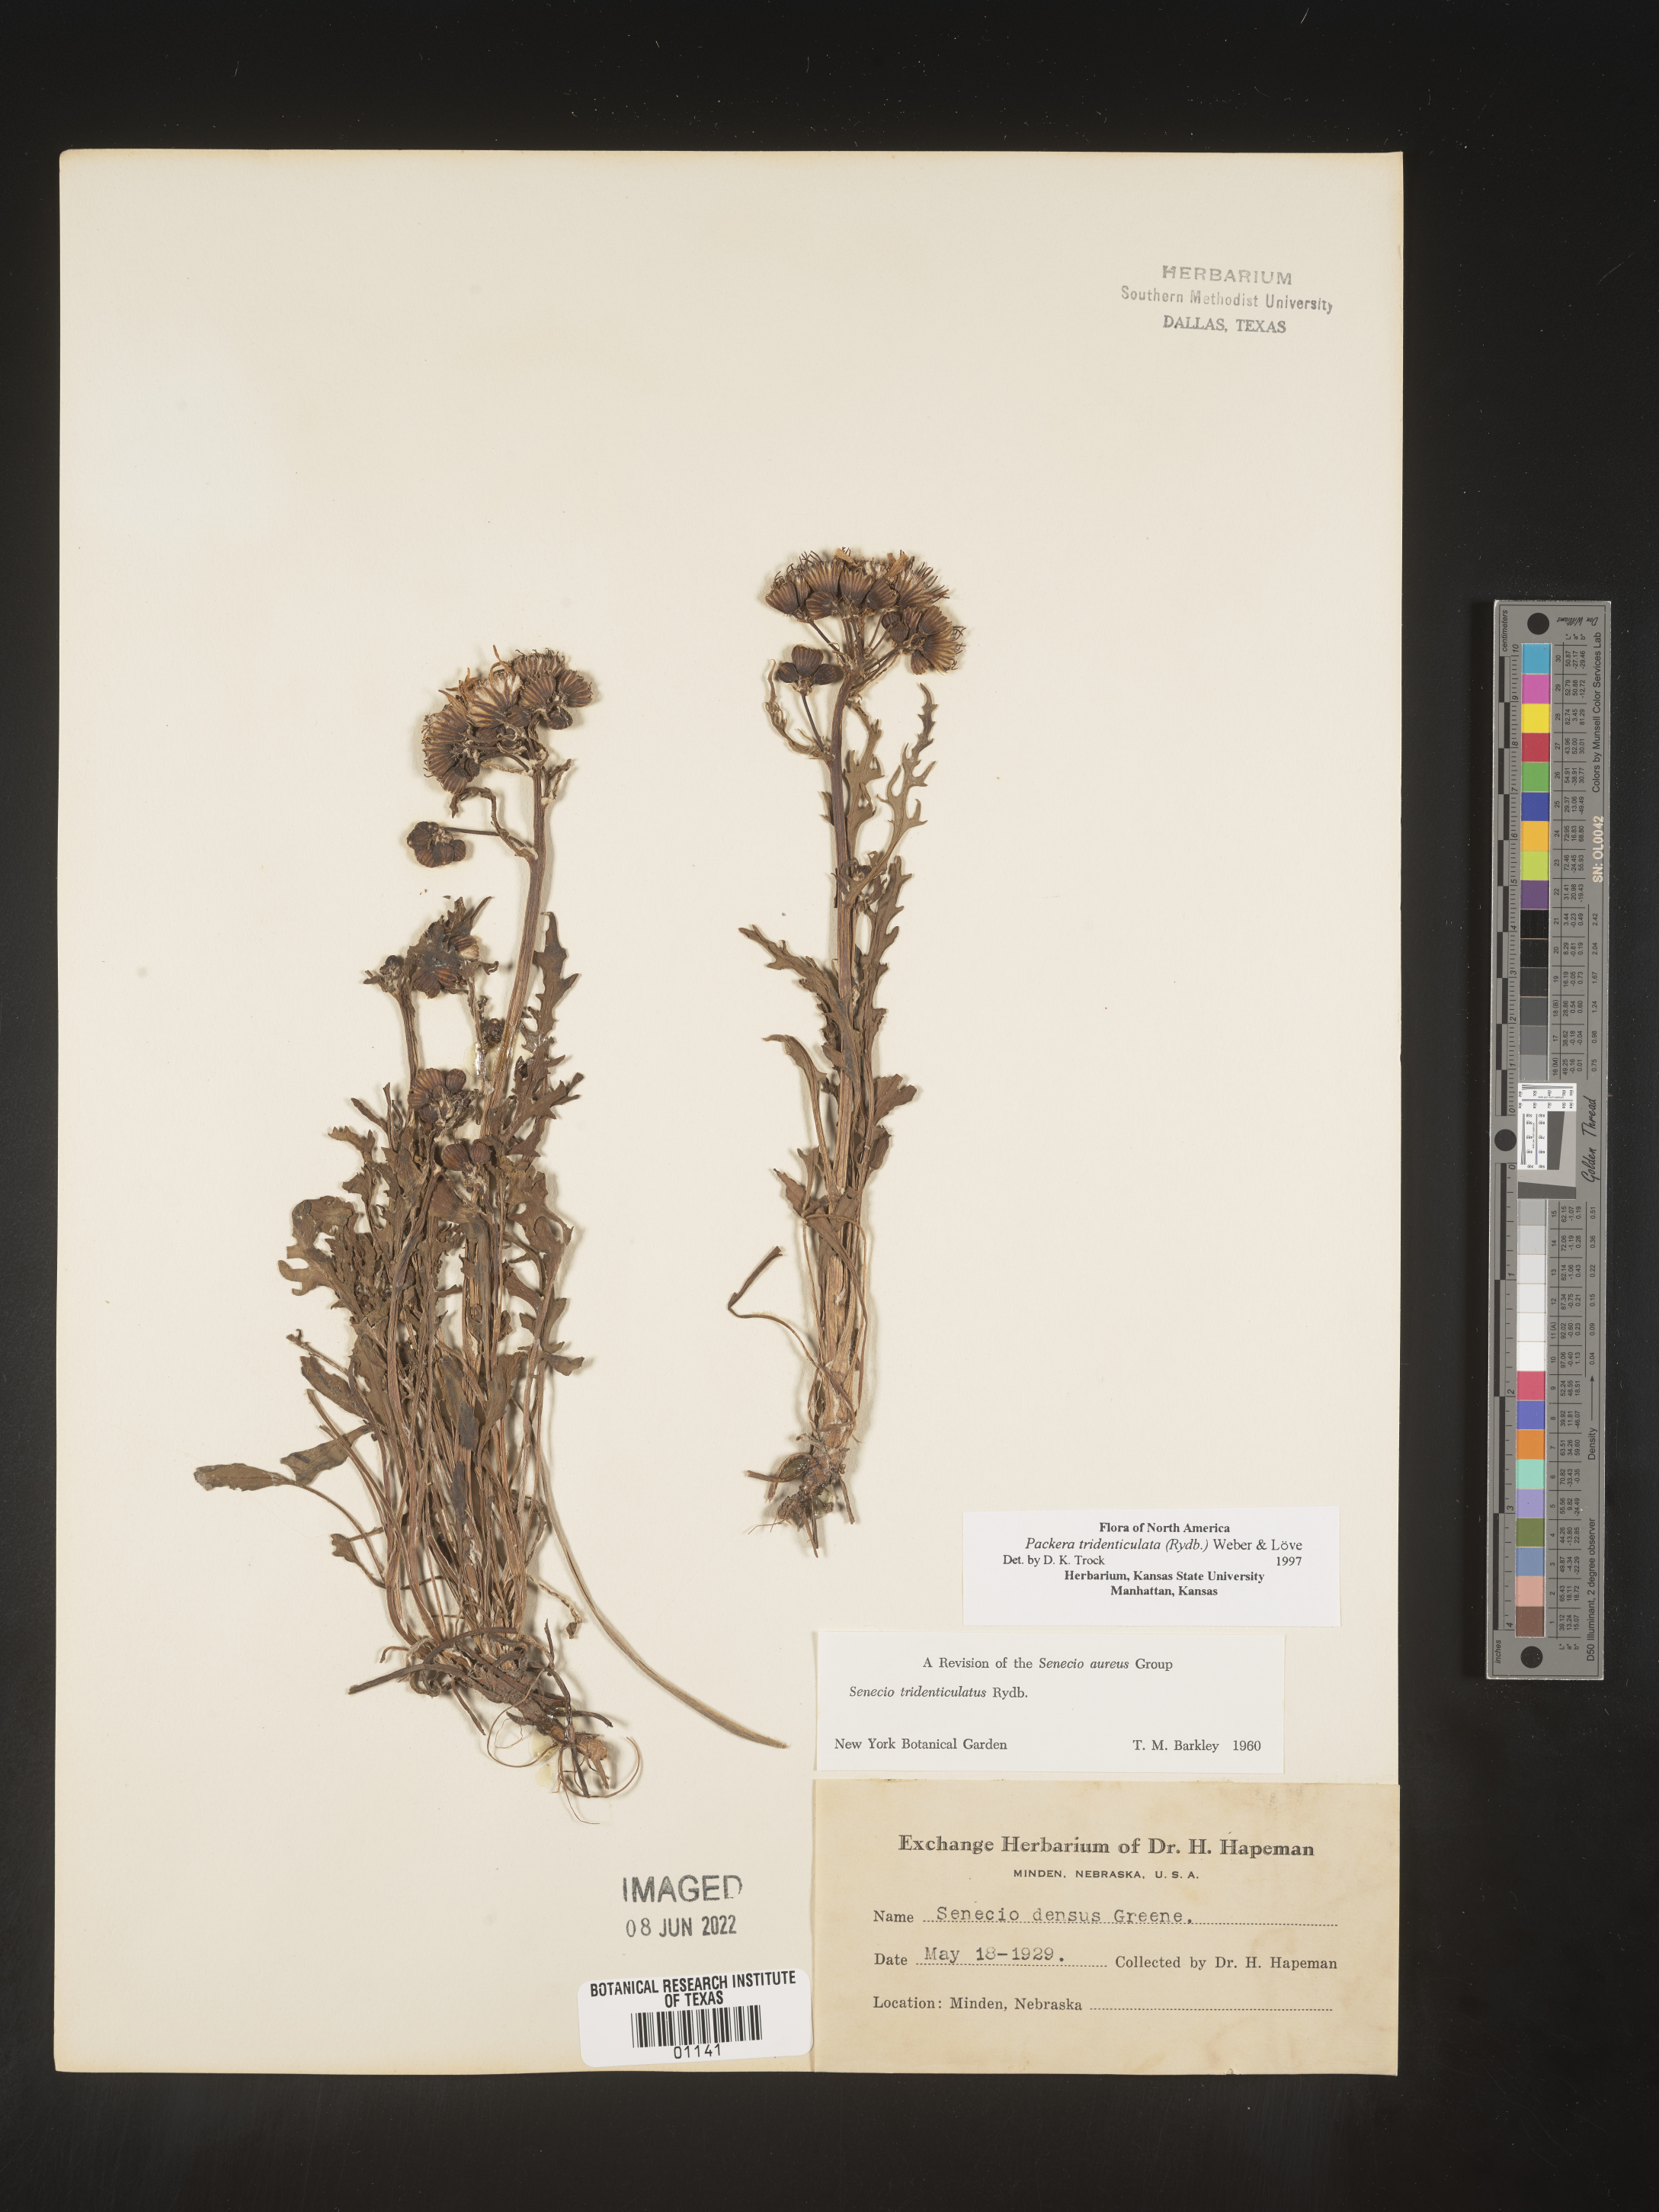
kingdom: Plantae
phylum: Tracheophyta
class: Magnoliopsida
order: Asterales
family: Asteraceae
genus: Packera
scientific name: Packera thurberi
